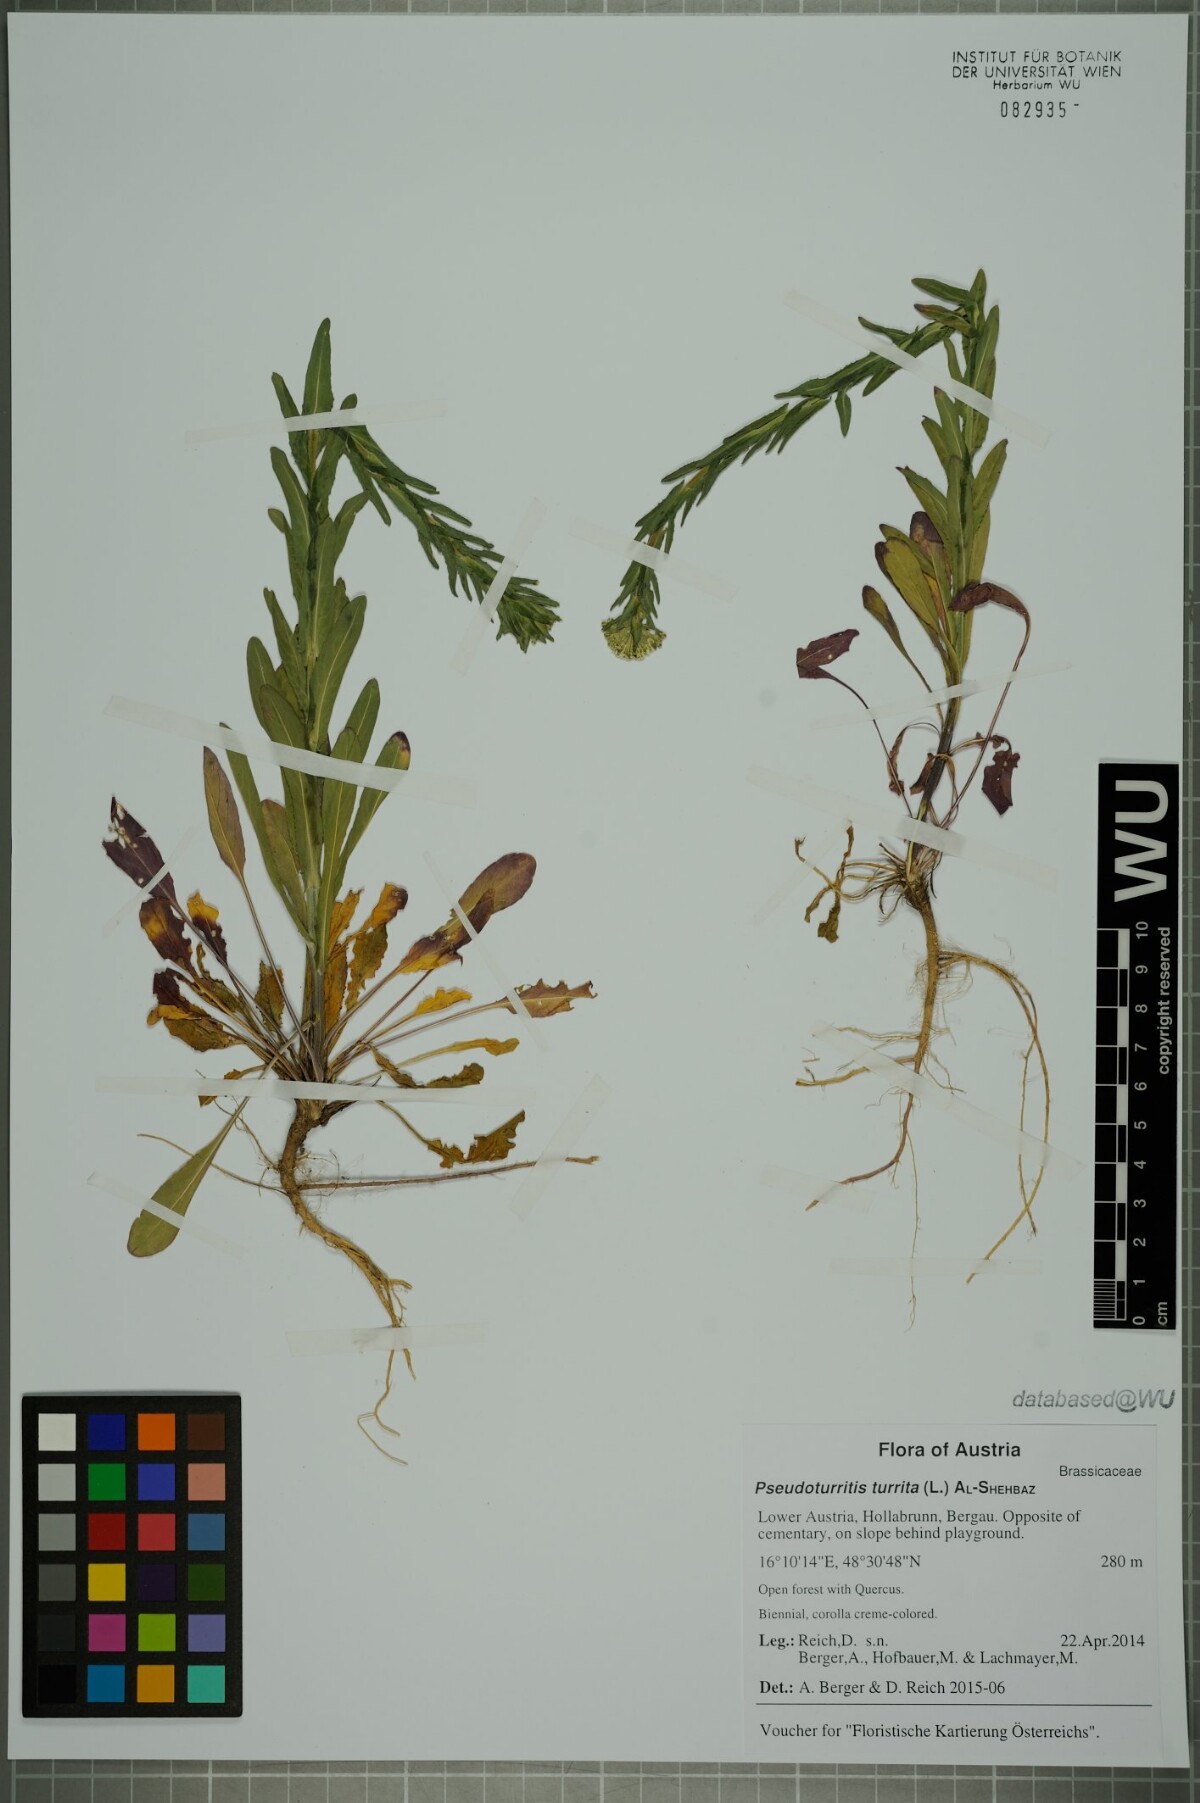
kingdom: Plantae
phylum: Tracheophyta
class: Magnoliopsida
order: Brassicales
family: Brassicaceae
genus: Lepidium
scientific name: Lepidium campestre
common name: Field pepperwort
